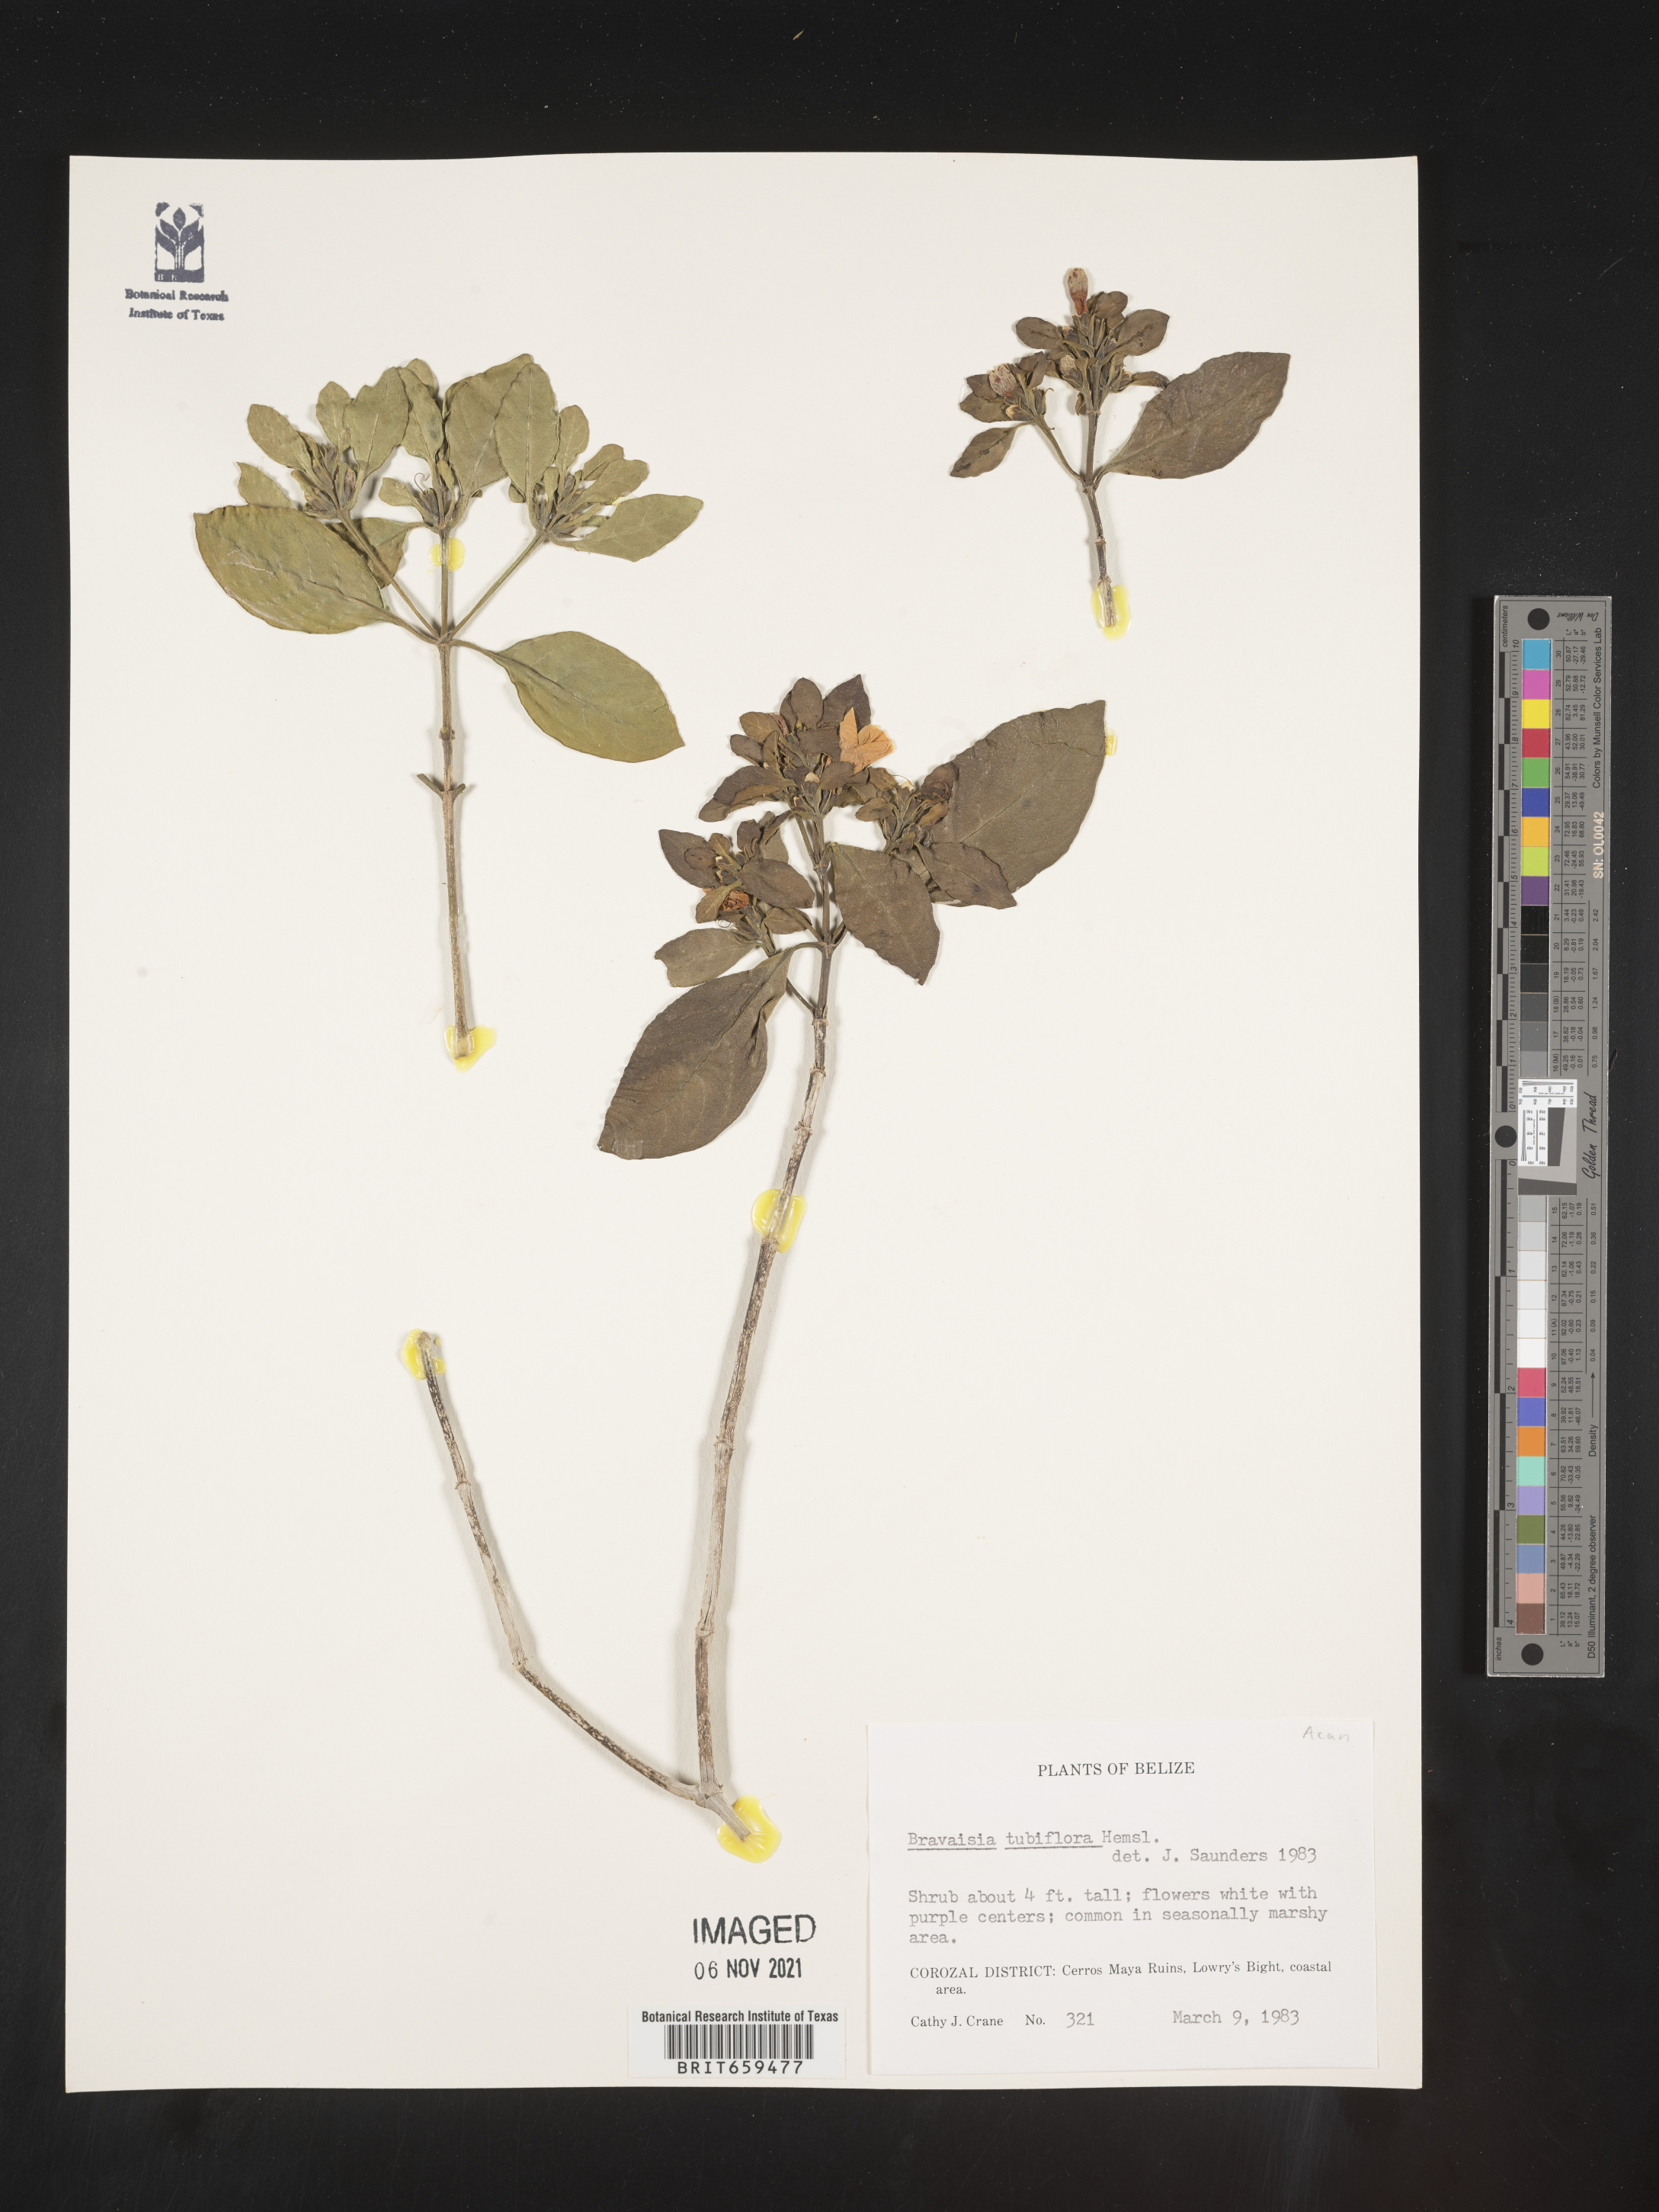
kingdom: Plantae
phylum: Tracheophyta
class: Magnoliopsida
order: Lamiales
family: Acanthaceae
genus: Bravaisia
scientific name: Bravaisia
